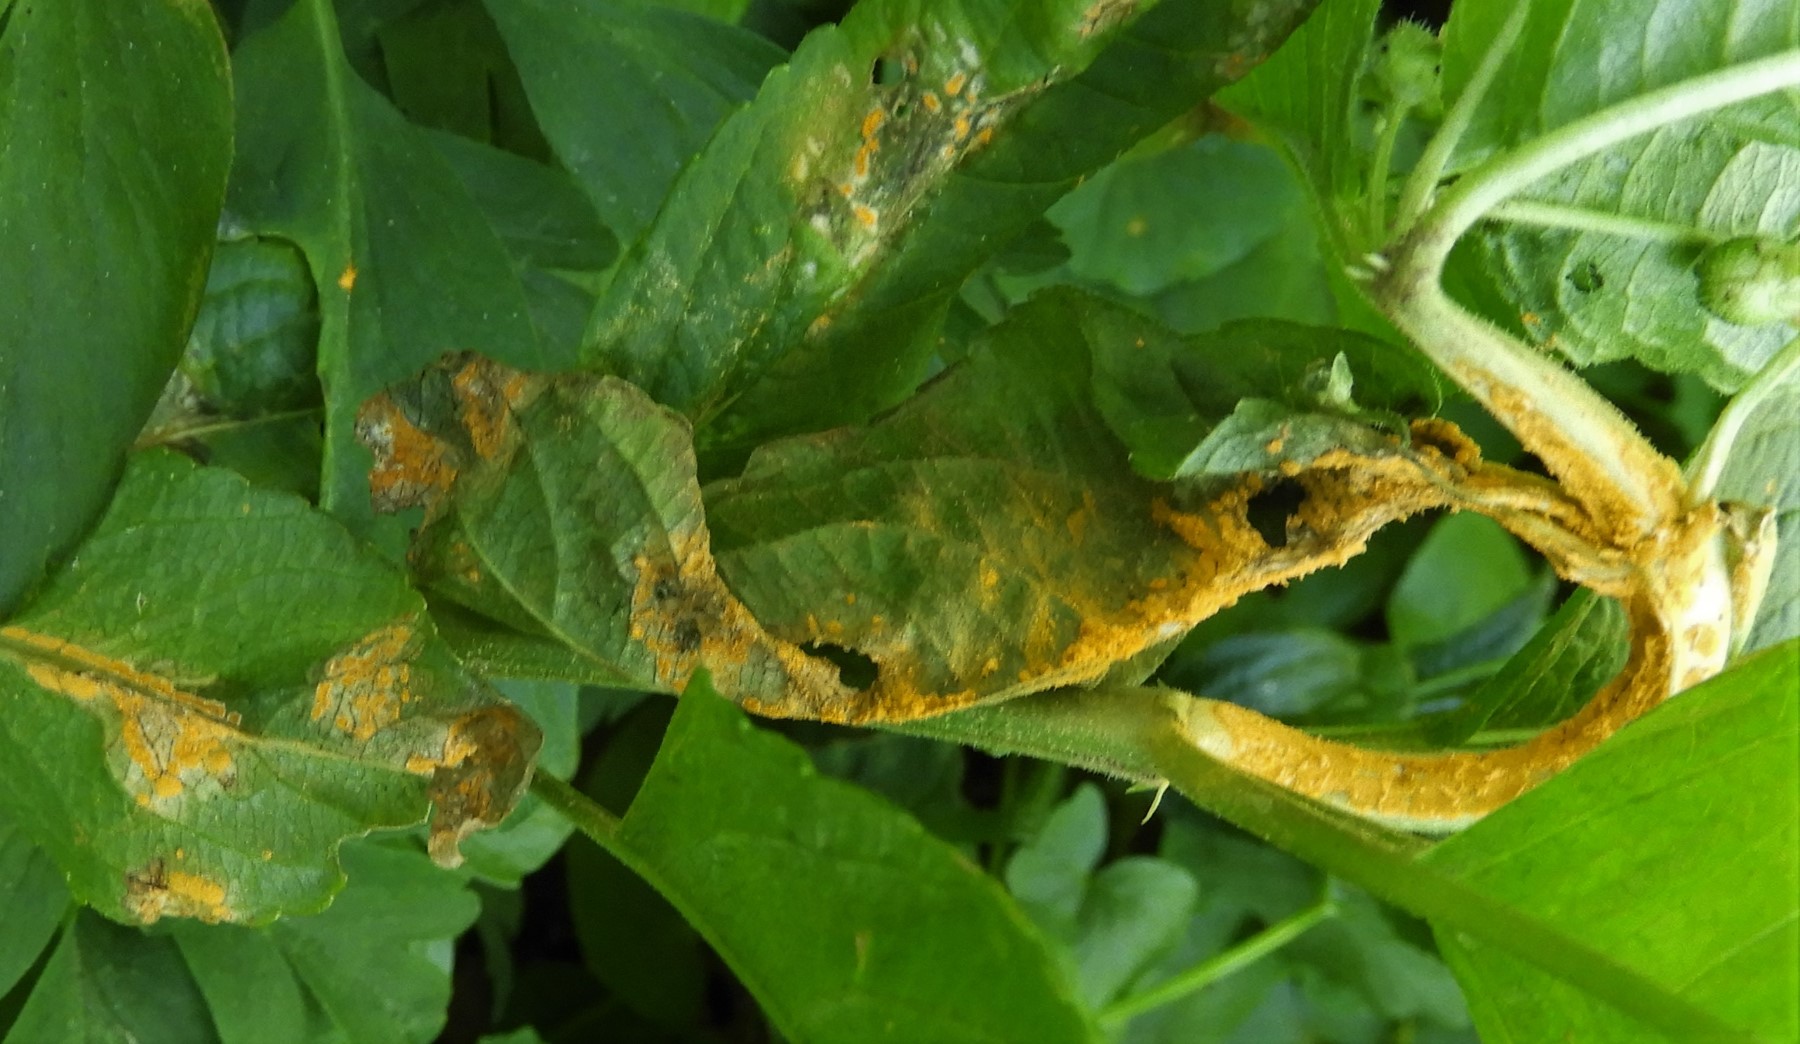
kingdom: Fungi
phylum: Basidiomycota
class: Pucciniomycetes
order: Pucciniales
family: Melampsoraceae
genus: Melampsora
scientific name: Melampsora populnea
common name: poppel-skorperust
